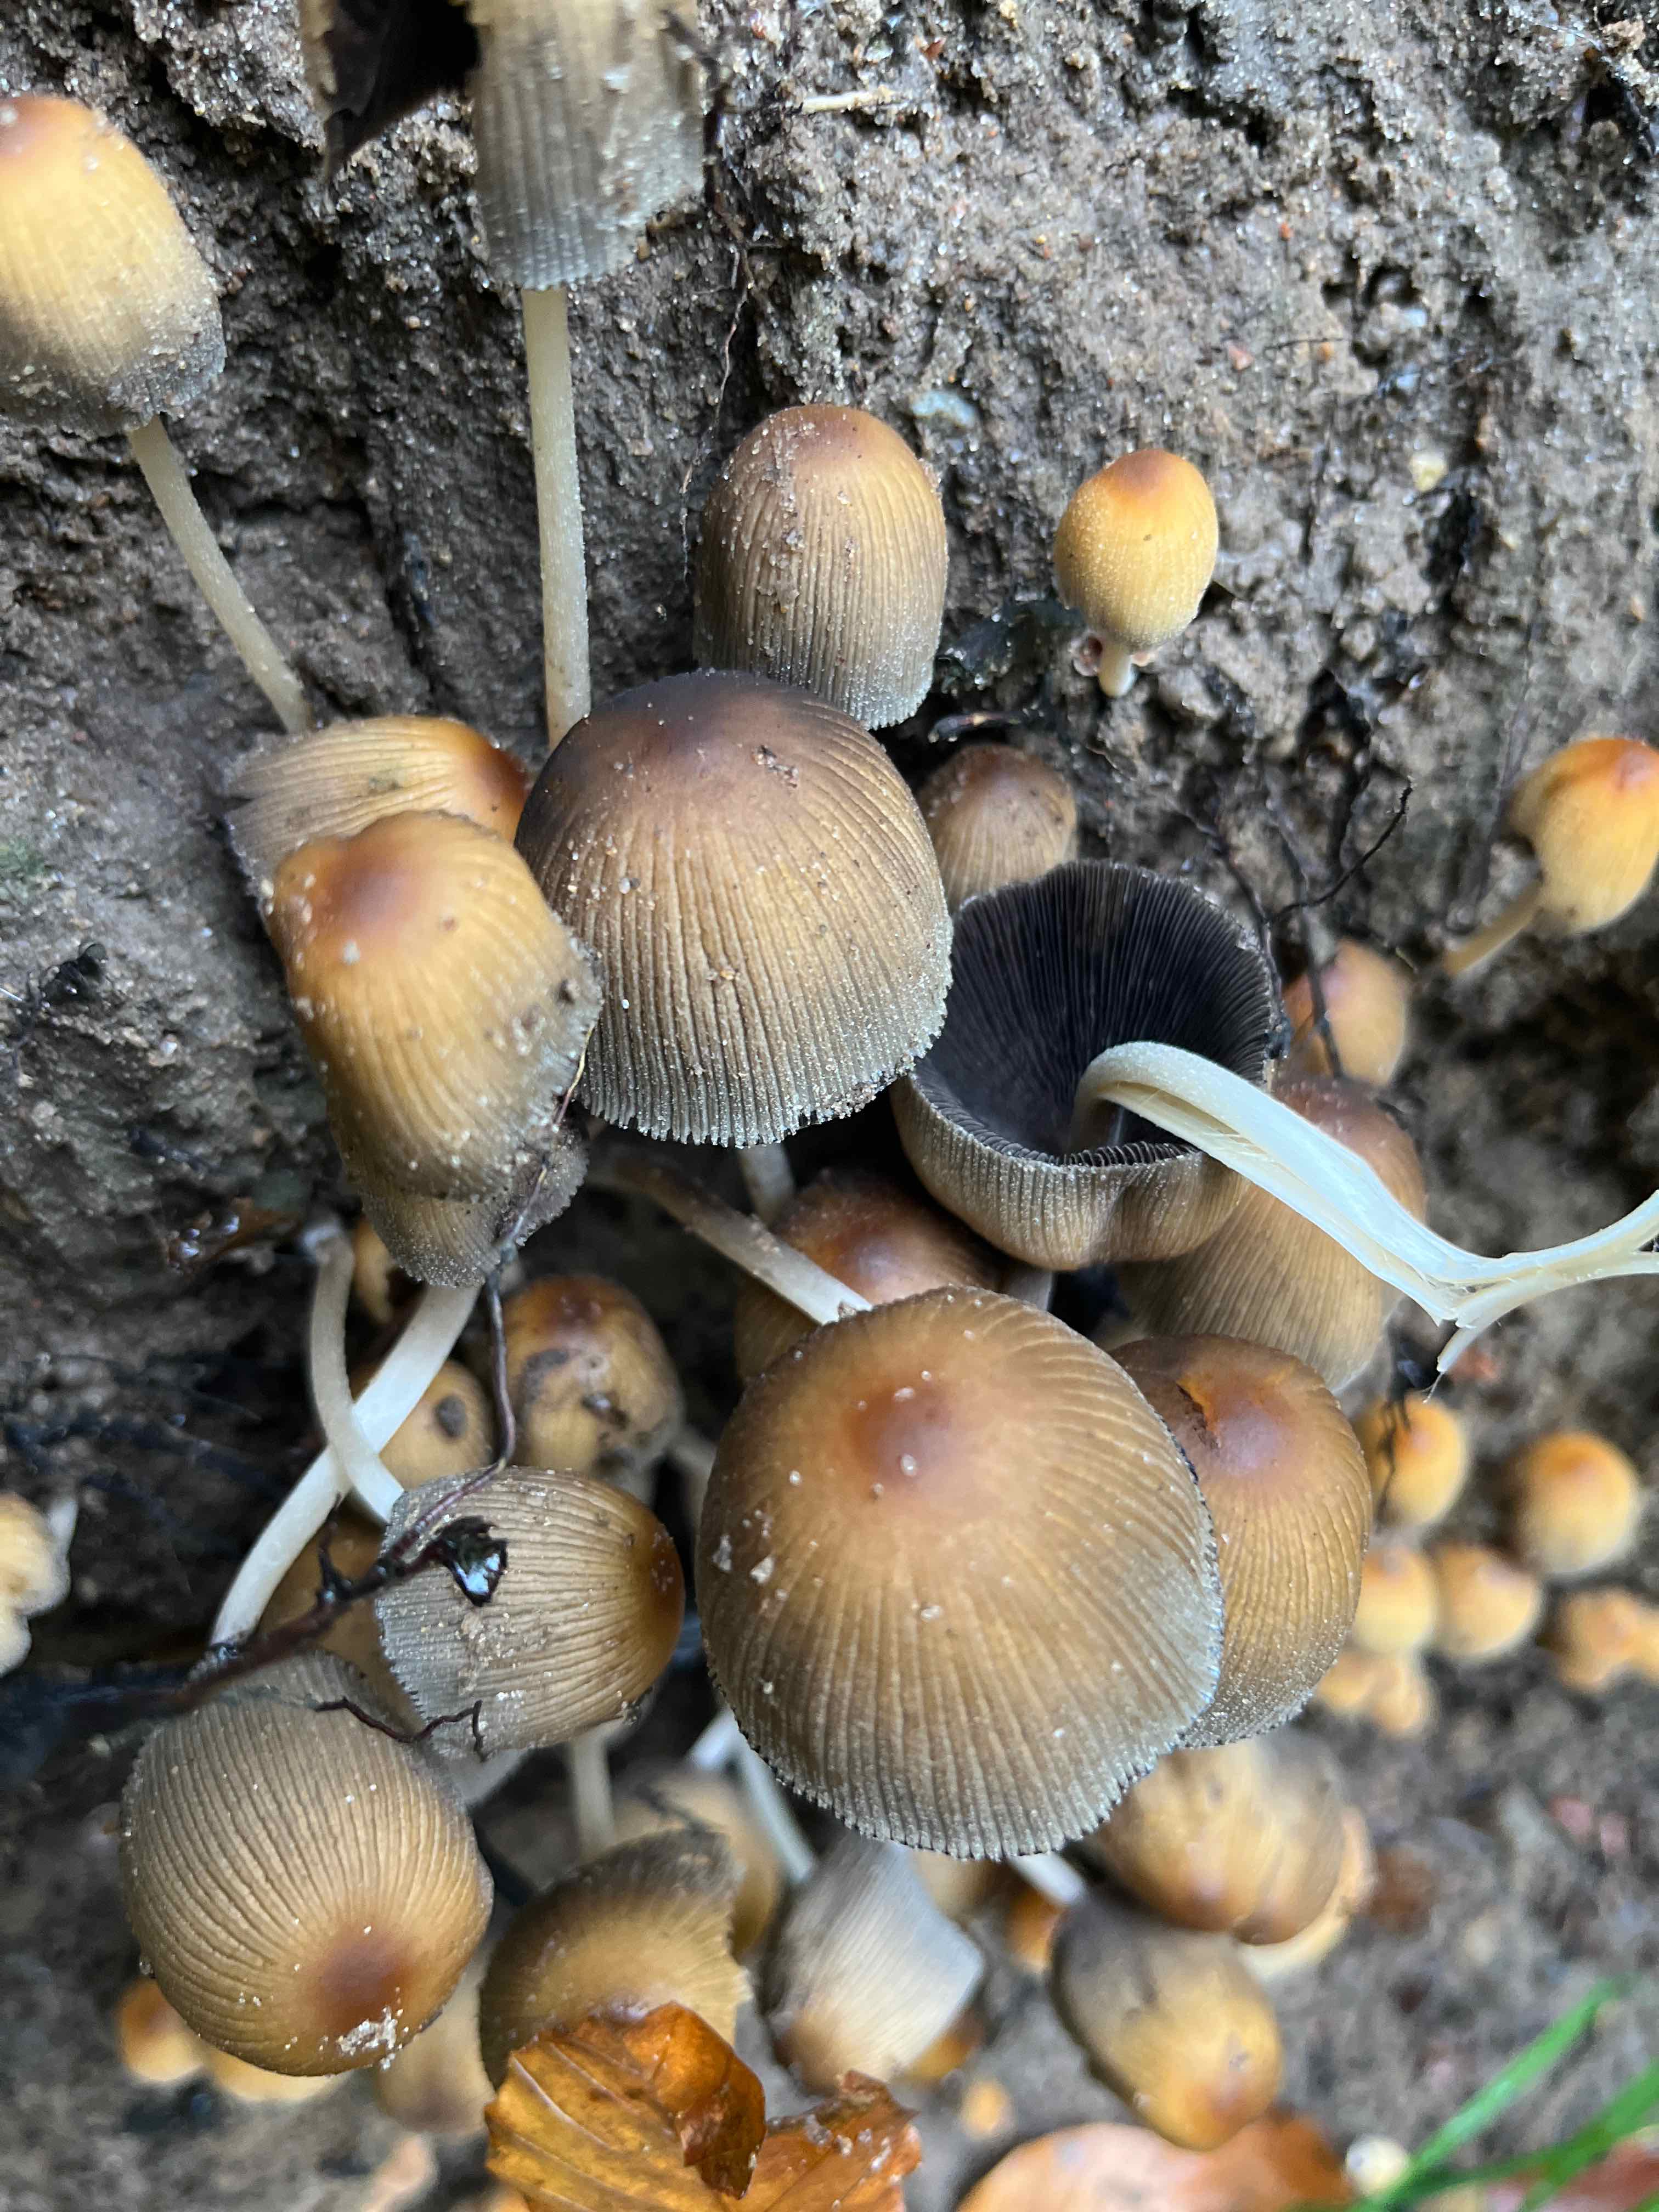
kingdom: Fungi
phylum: Basidiomycota
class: Agaricomycetes
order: Agaricales
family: Psathyrellaceae
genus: Coprinellus
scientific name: Coprinellus micaceus
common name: glimmer-blækhat
